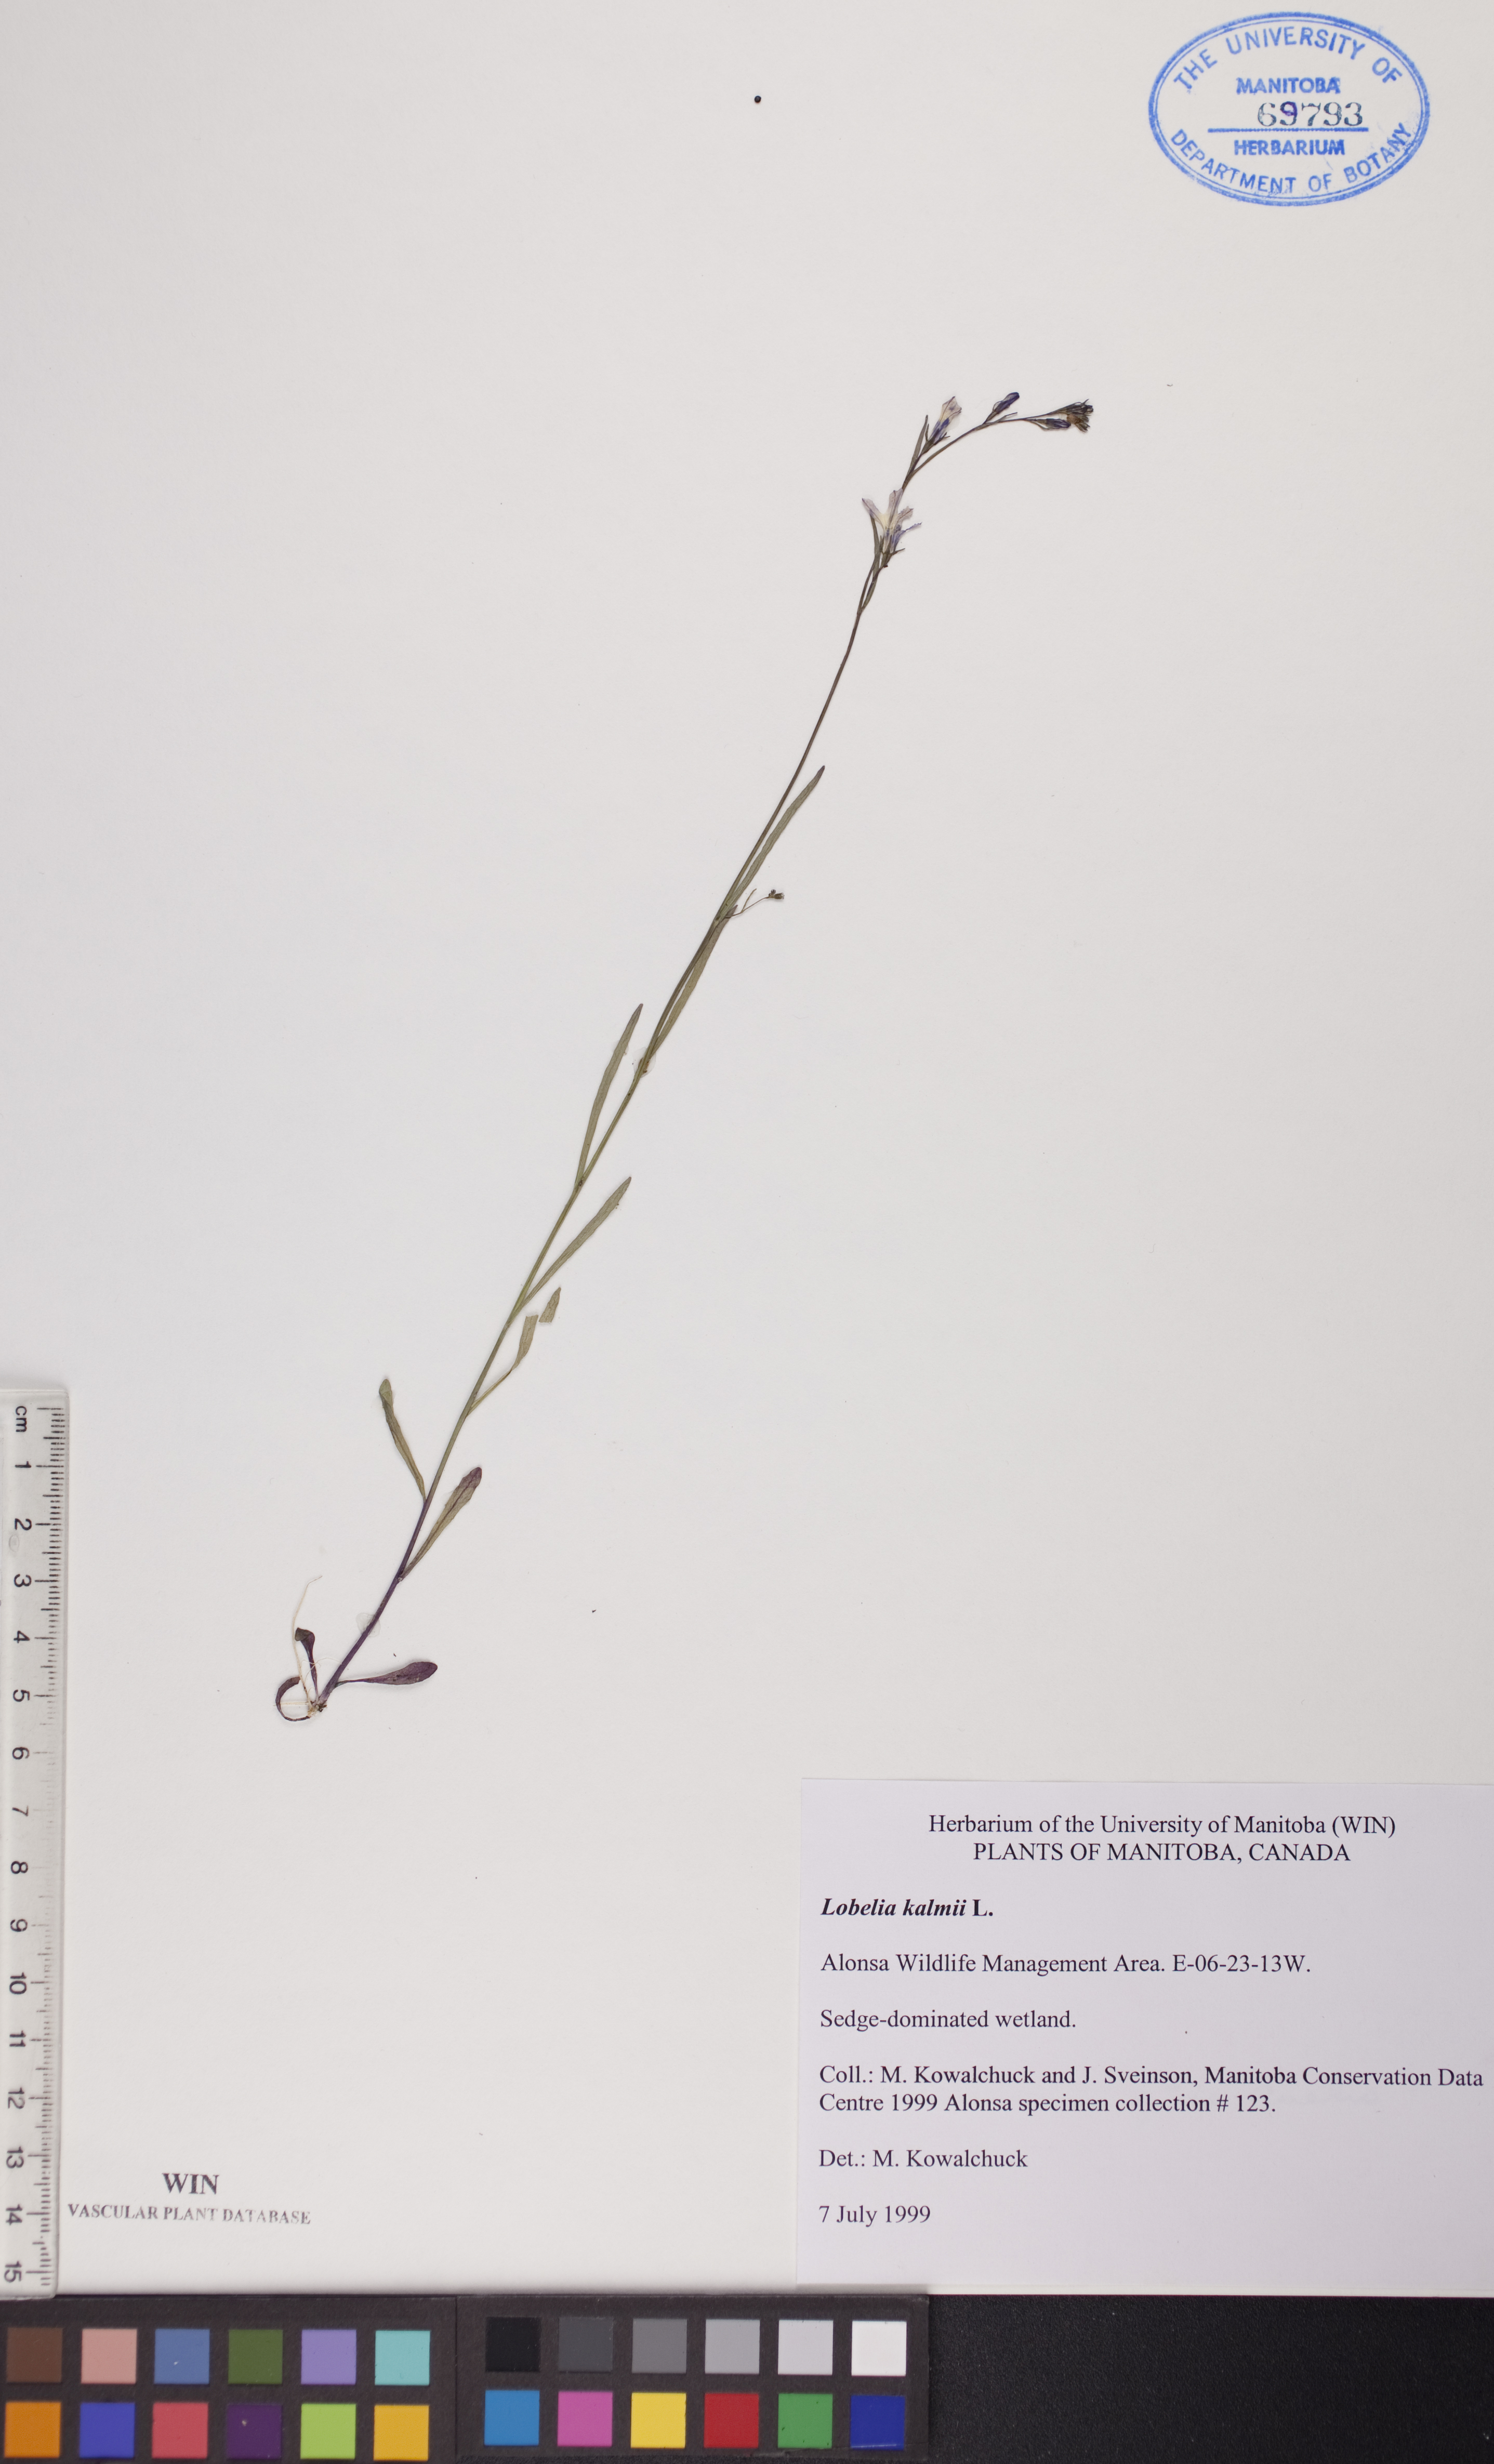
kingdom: Plantae
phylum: Tracheophyta
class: Magnoliopsida
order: Asterales
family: Campanulaceae
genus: Lobelia
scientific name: Lobelia kalmii
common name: Kalm's lobelia
